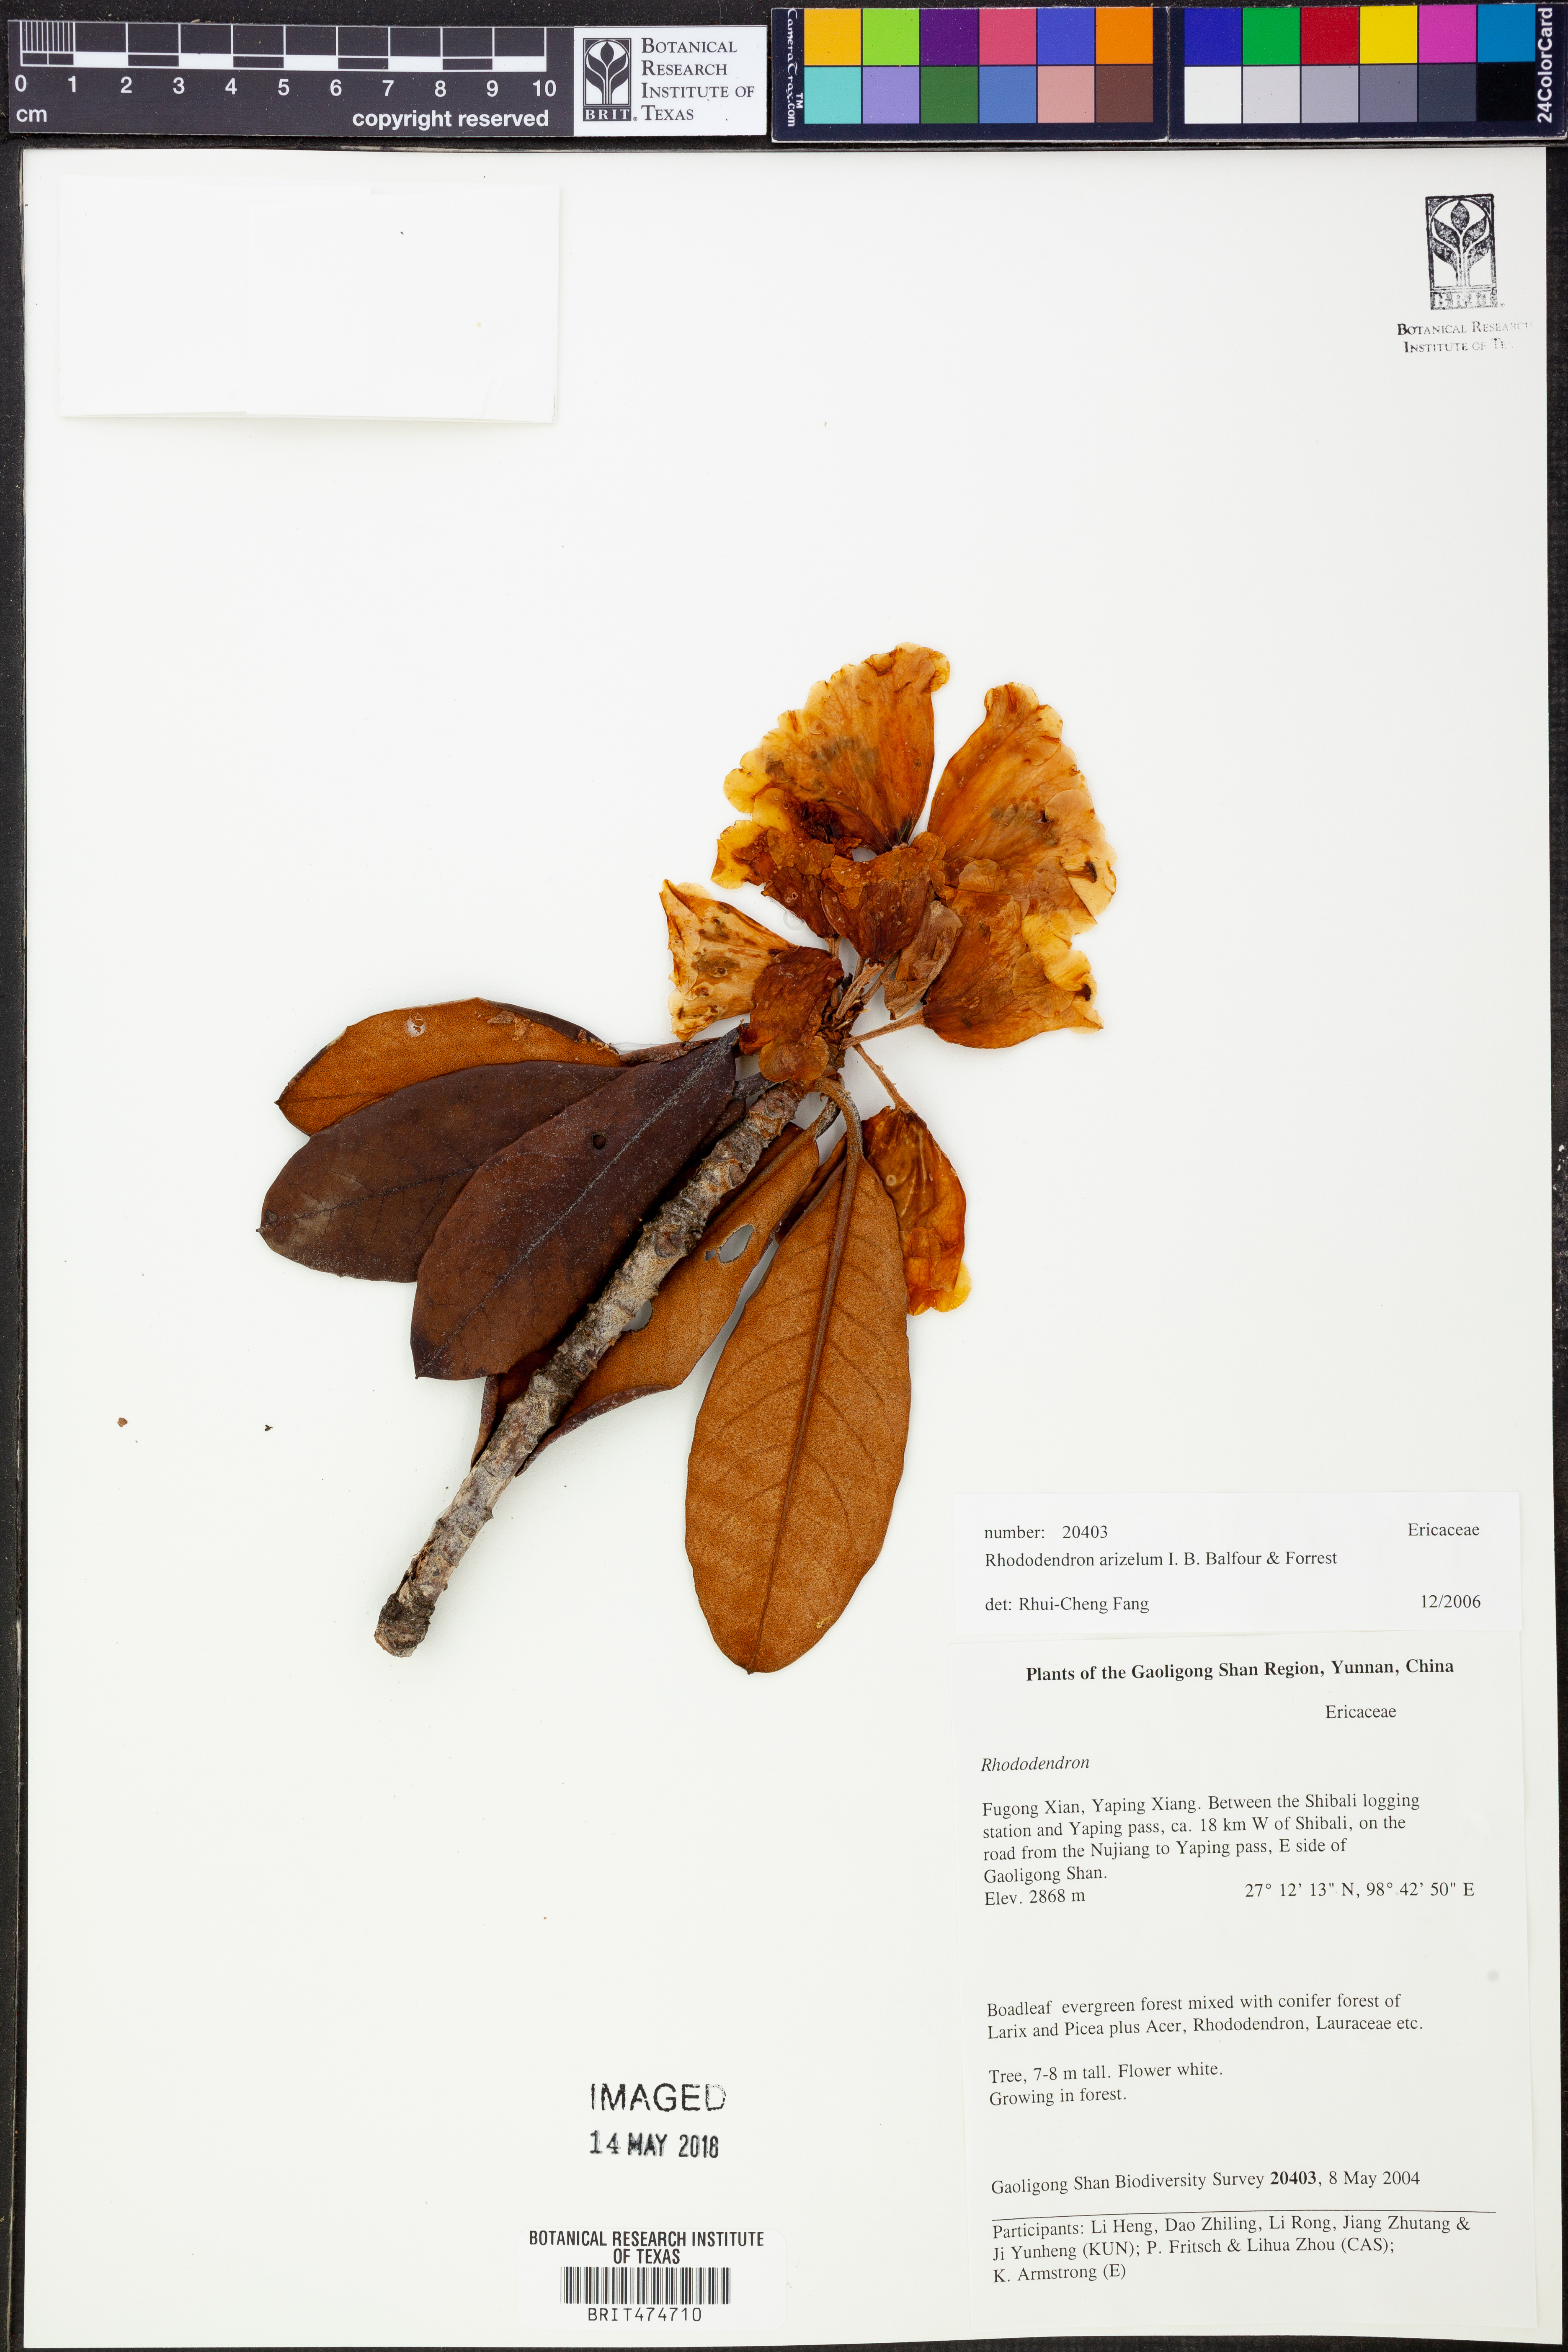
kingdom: Plantae
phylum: Tracheophyta
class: Magnoliopsida
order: Ericales
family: Ericaceae
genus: Rhododendron
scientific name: Rhododendron
